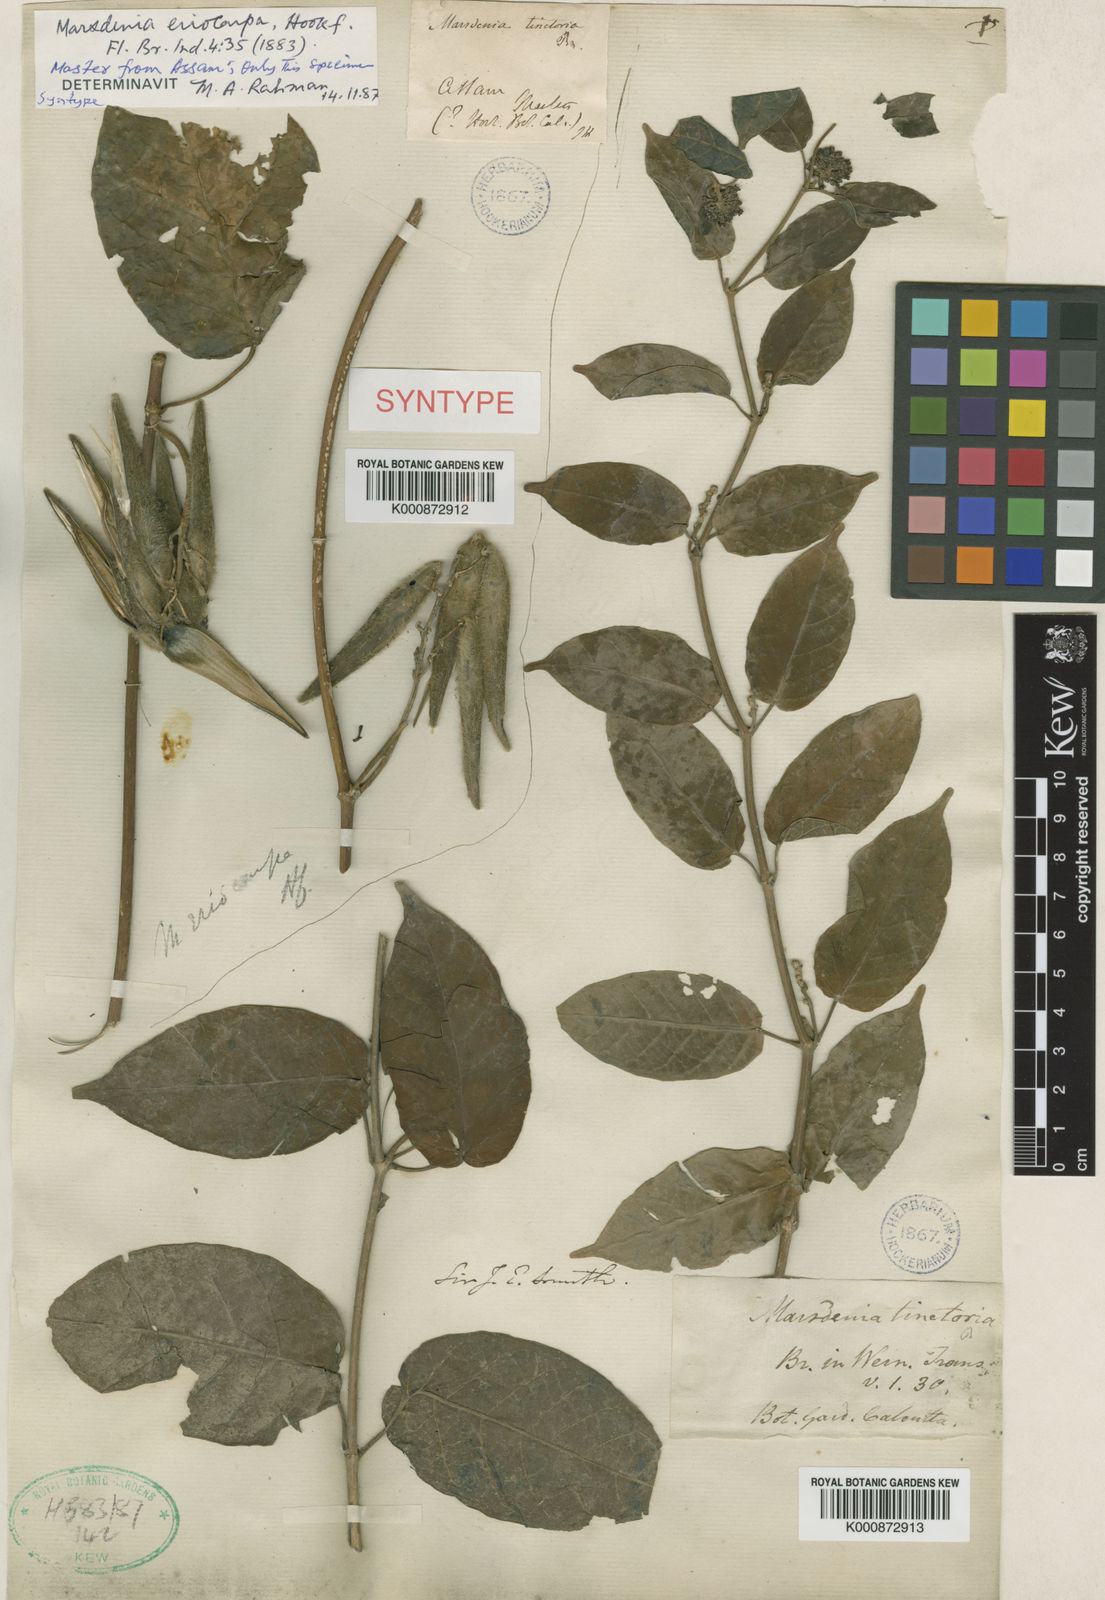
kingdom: Plantae
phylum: Tracheophyta
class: Magnoliopsida
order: Gentianales
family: Apocynaceae
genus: Marsdenia
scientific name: Marsdenia tinctoria
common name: Climbing-indigo
